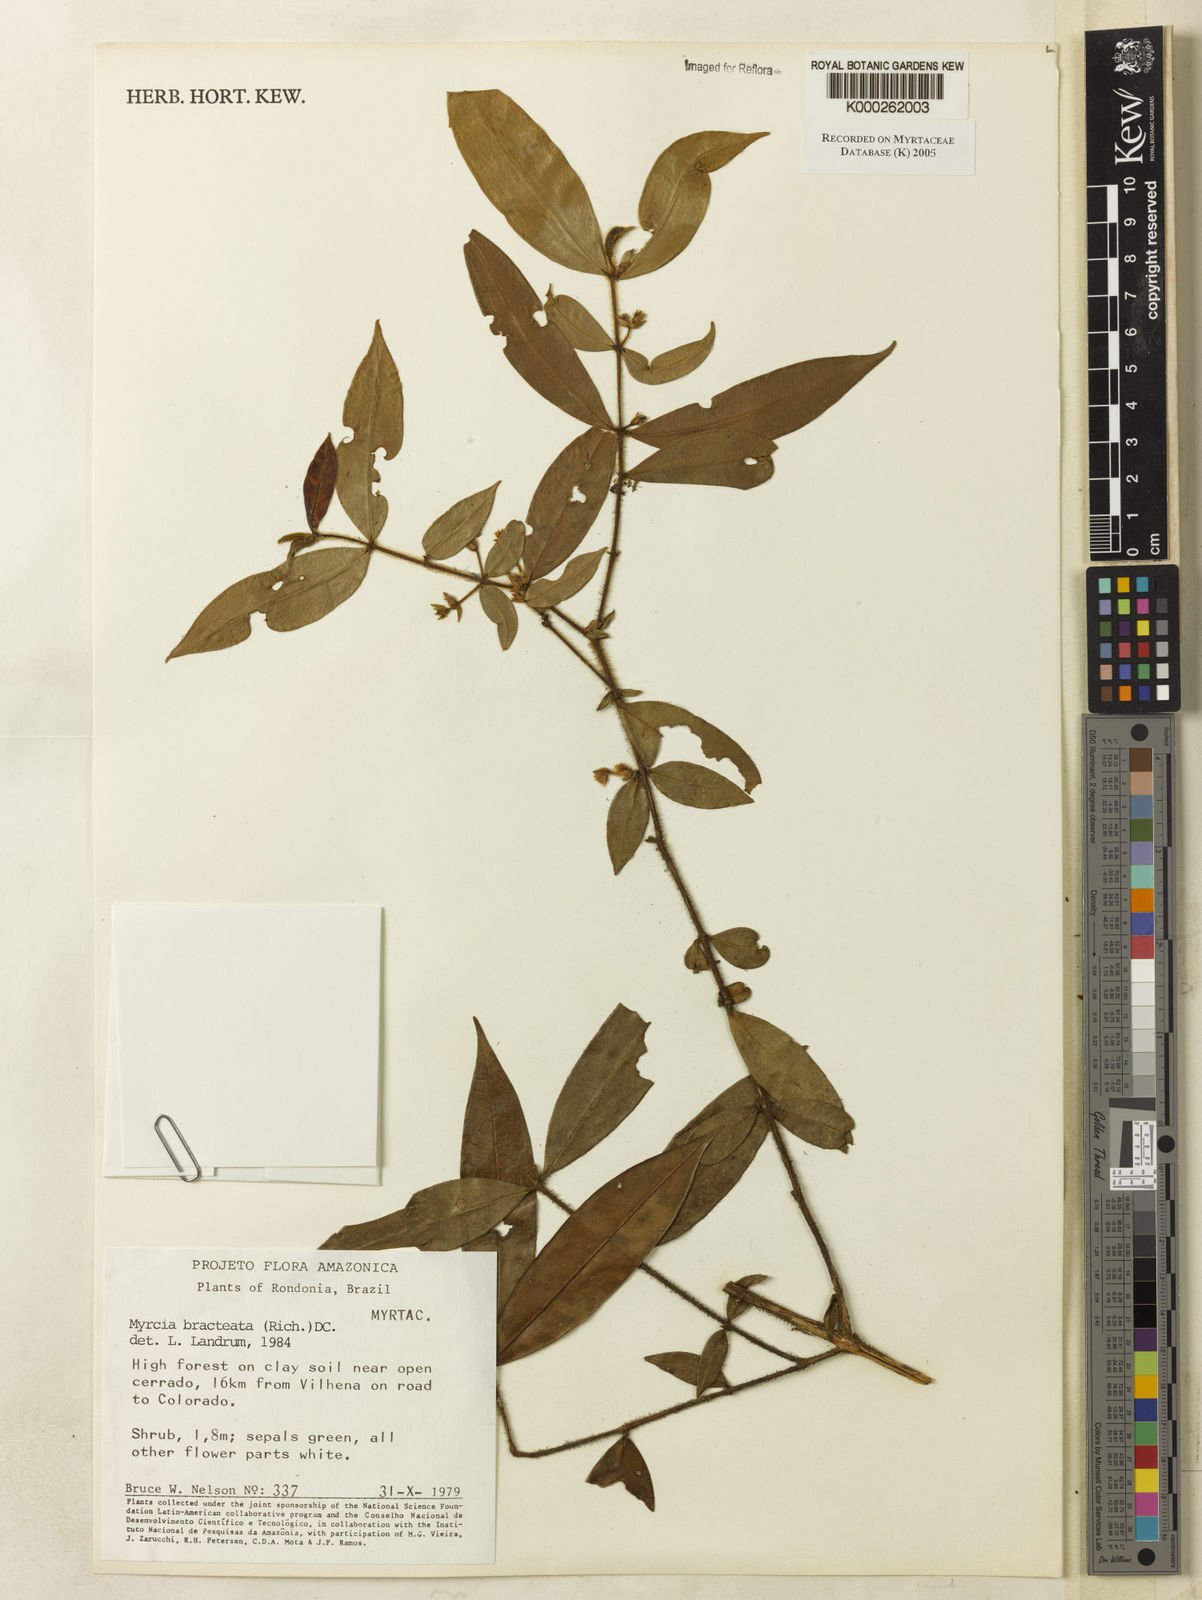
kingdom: Plantae
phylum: Tracheophyta
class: Magnoliopsida
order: Myrtales
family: Myrtaceae
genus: Myrcia
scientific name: Myrcia bracteata
